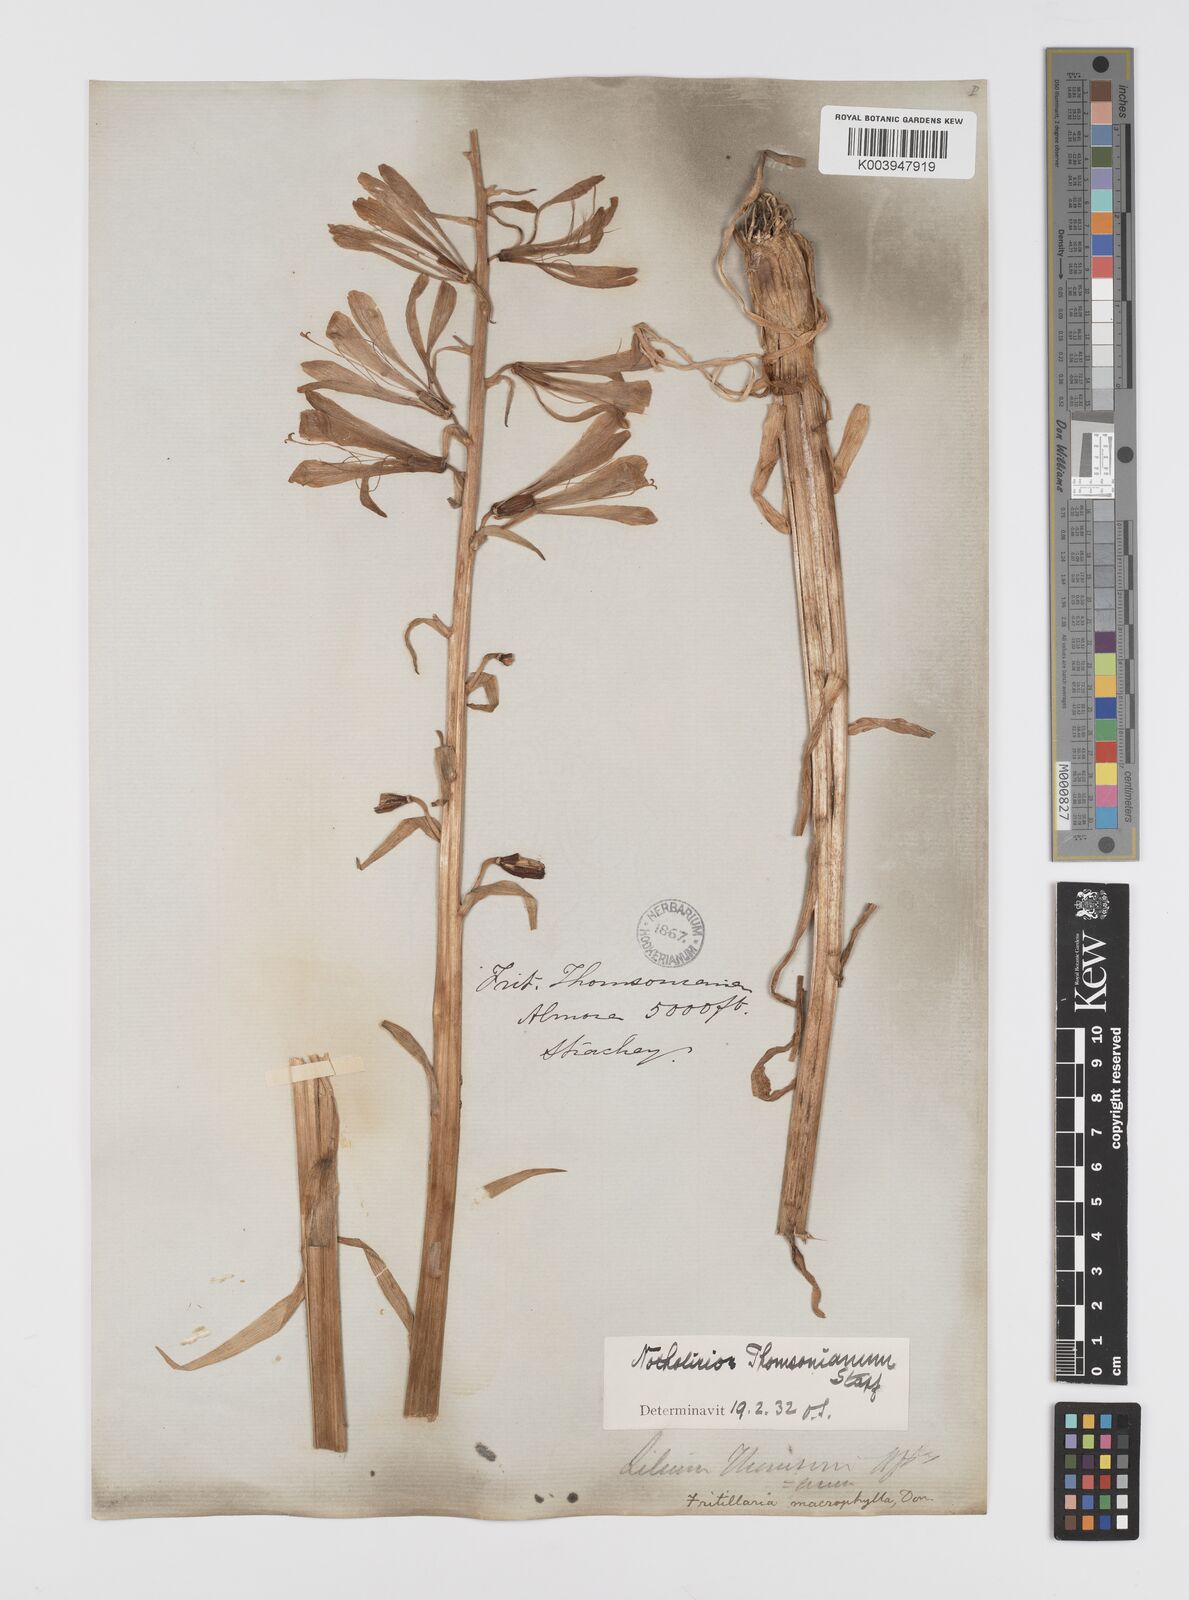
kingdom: Plantae
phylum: Tracheophyta
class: Liliopsida
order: Liliales
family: Liliaceae
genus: Notholirion
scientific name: Notholirion thomsonianum
